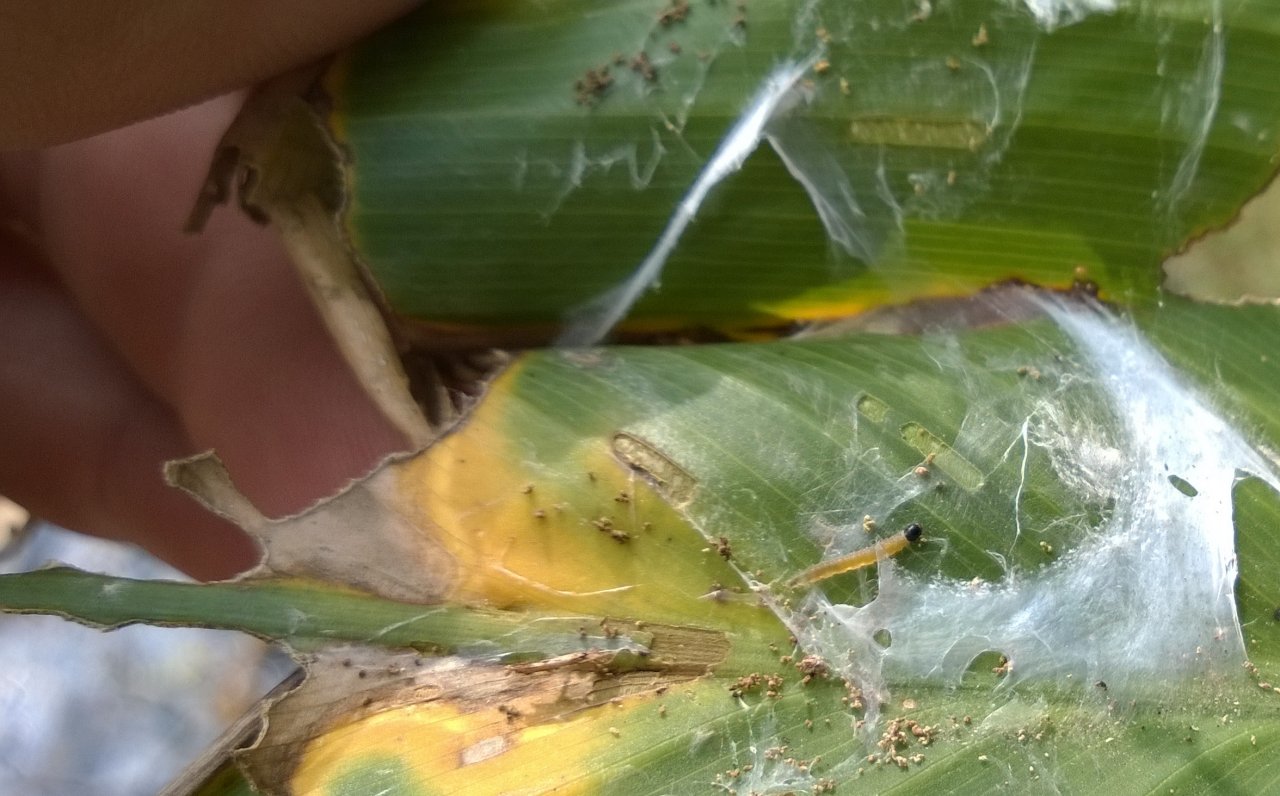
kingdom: Animalia
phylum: Arthropoda
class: Insecta
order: Lepidoptera
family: Hesperiidae
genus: Calpodes
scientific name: Calpodes ethlius
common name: Brazilian Skipper
